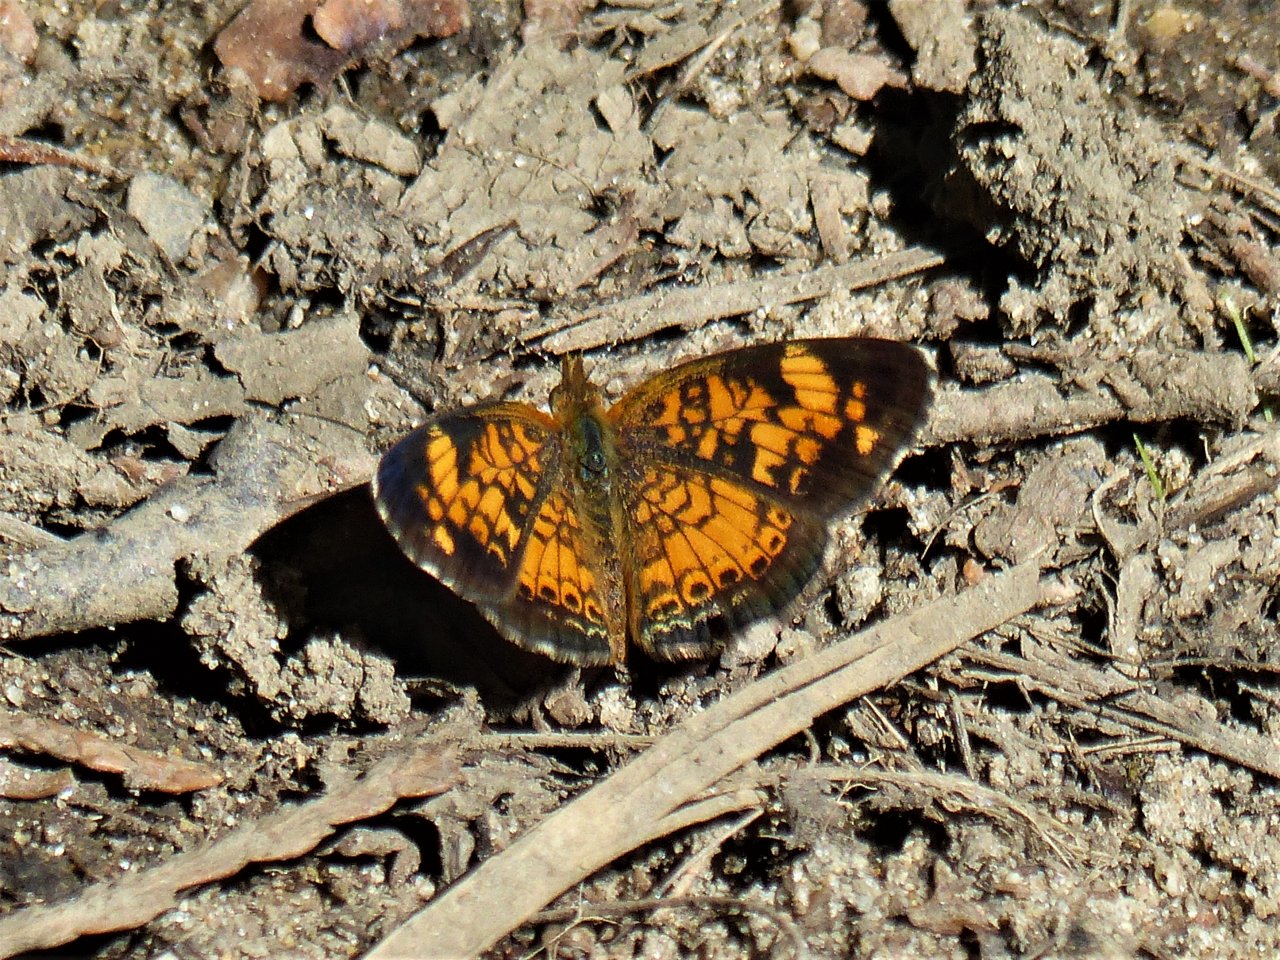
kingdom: Animalia
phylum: Arthropoda
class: Insecta
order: Lepidoptera
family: Nymphalidae
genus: Phyciodes
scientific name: Phyciodes tharos
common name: Pearl Crescent
